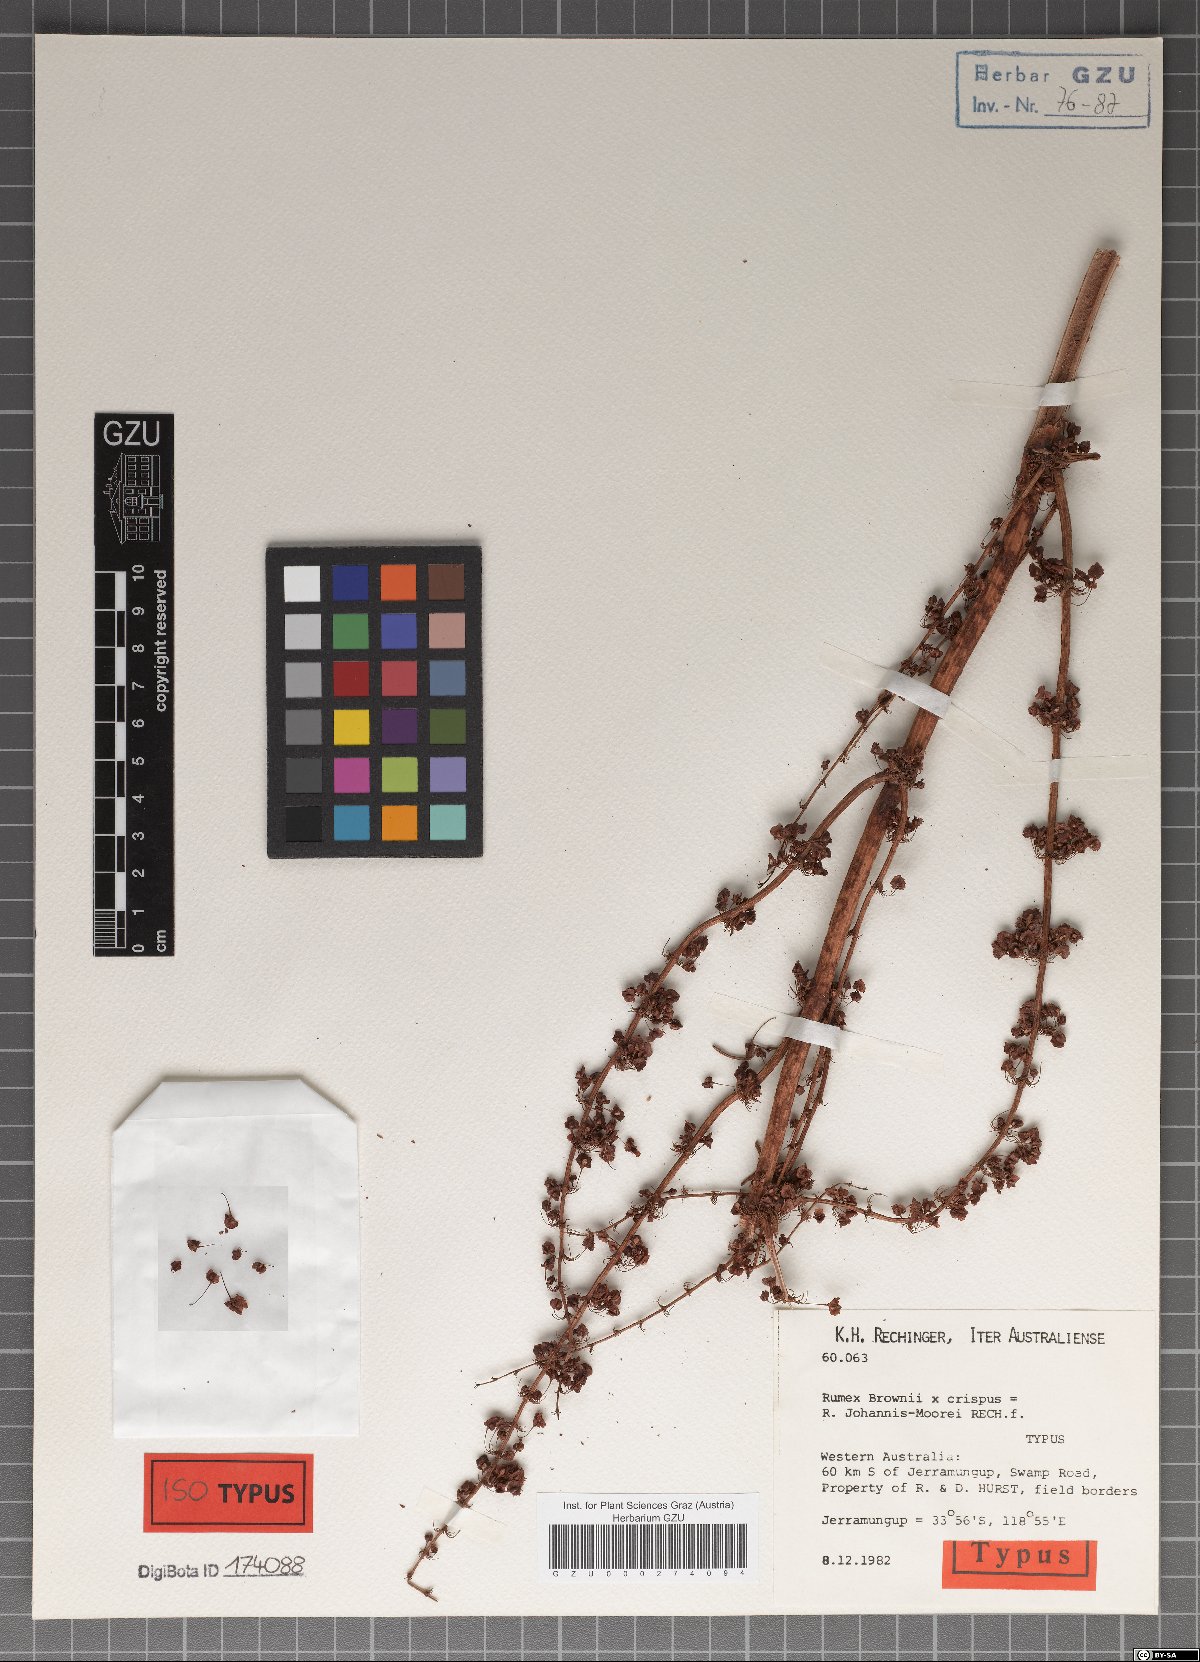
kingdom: Plantae
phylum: Tracheophyta
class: Magnoliopsida
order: Caryophyllales
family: Polygonaceae
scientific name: Polygonaceae
